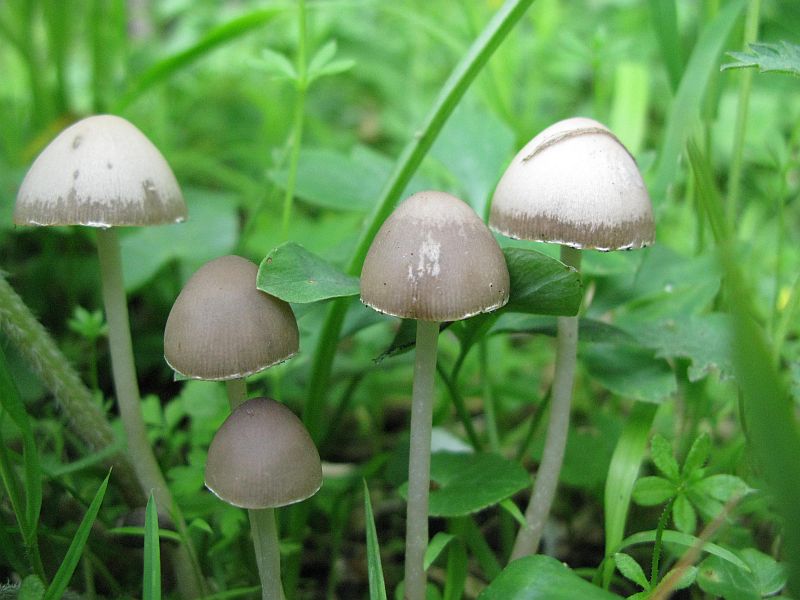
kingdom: Fungi
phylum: Basidiomycota
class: Agaricomycetes
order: Agaricales
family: Psathyrellaceae
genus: Psathyrella
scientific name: Psathyrella pseudogracilis
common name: slank mørkhat
